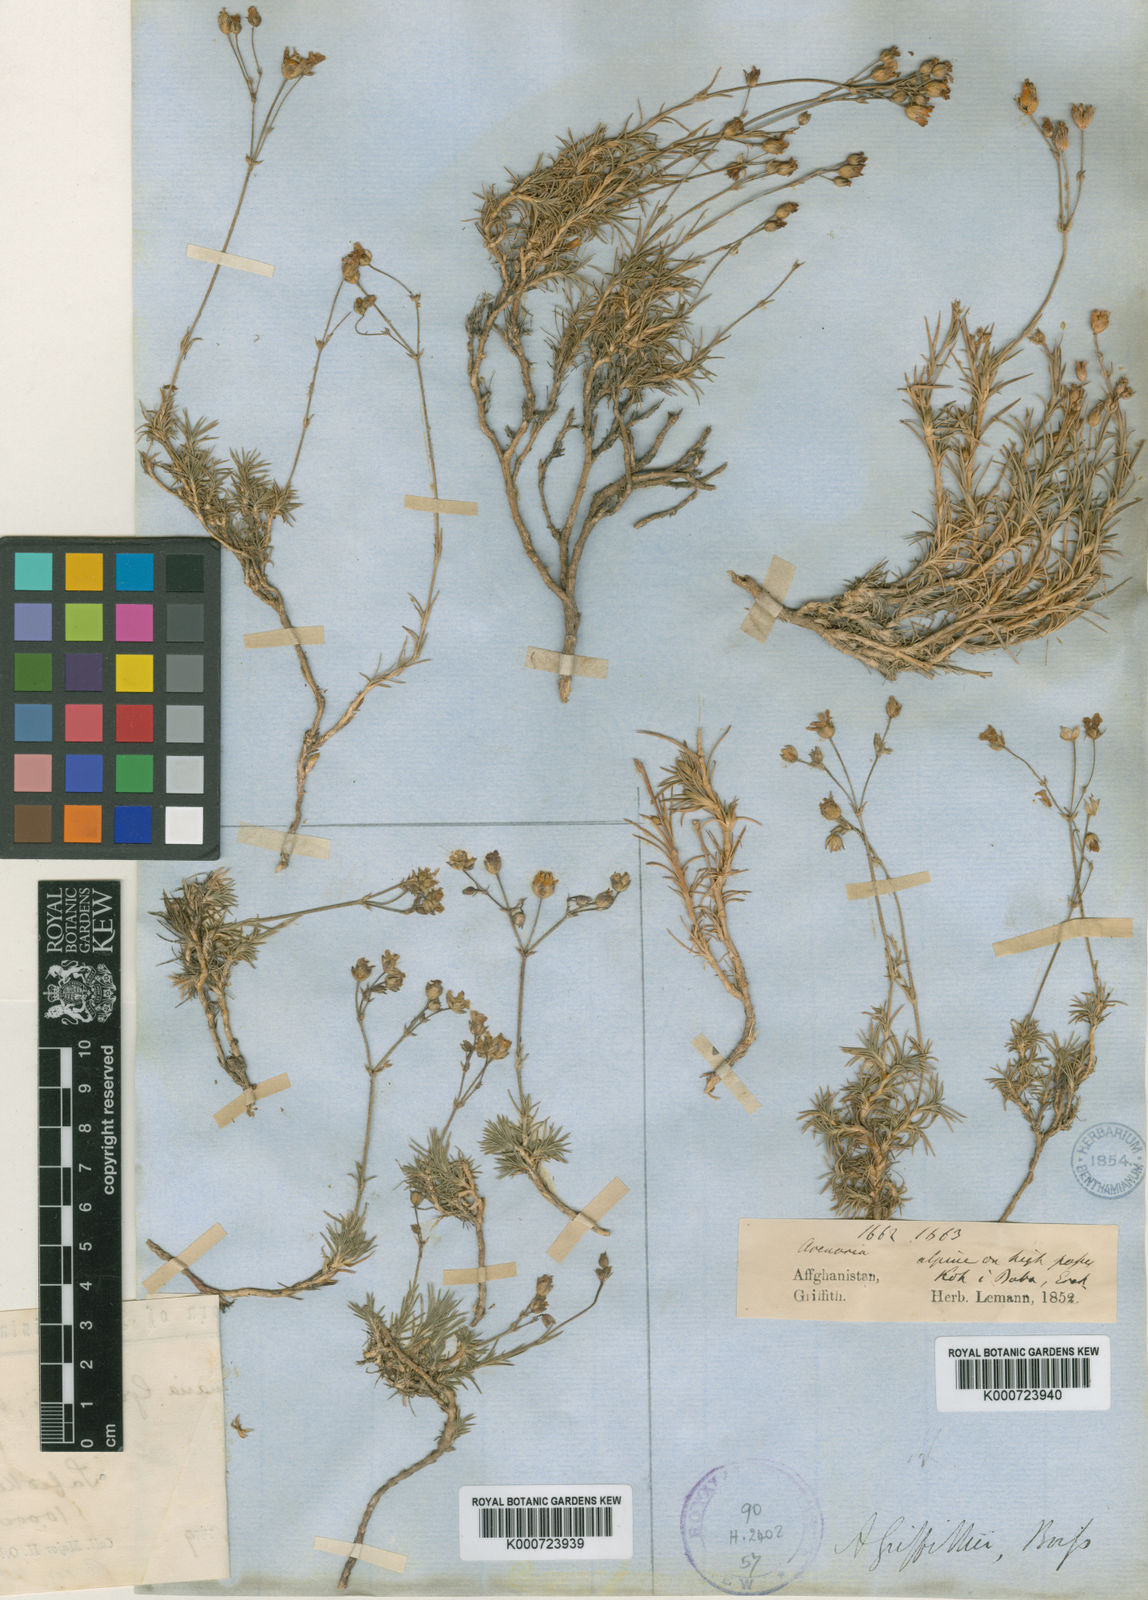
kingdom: Plantae
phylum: Tracheophyta
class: Magnoliopsida
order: Caryophyllales
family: Caryophyllaceae
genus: Eremogone
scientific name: Eremogone griffithii
